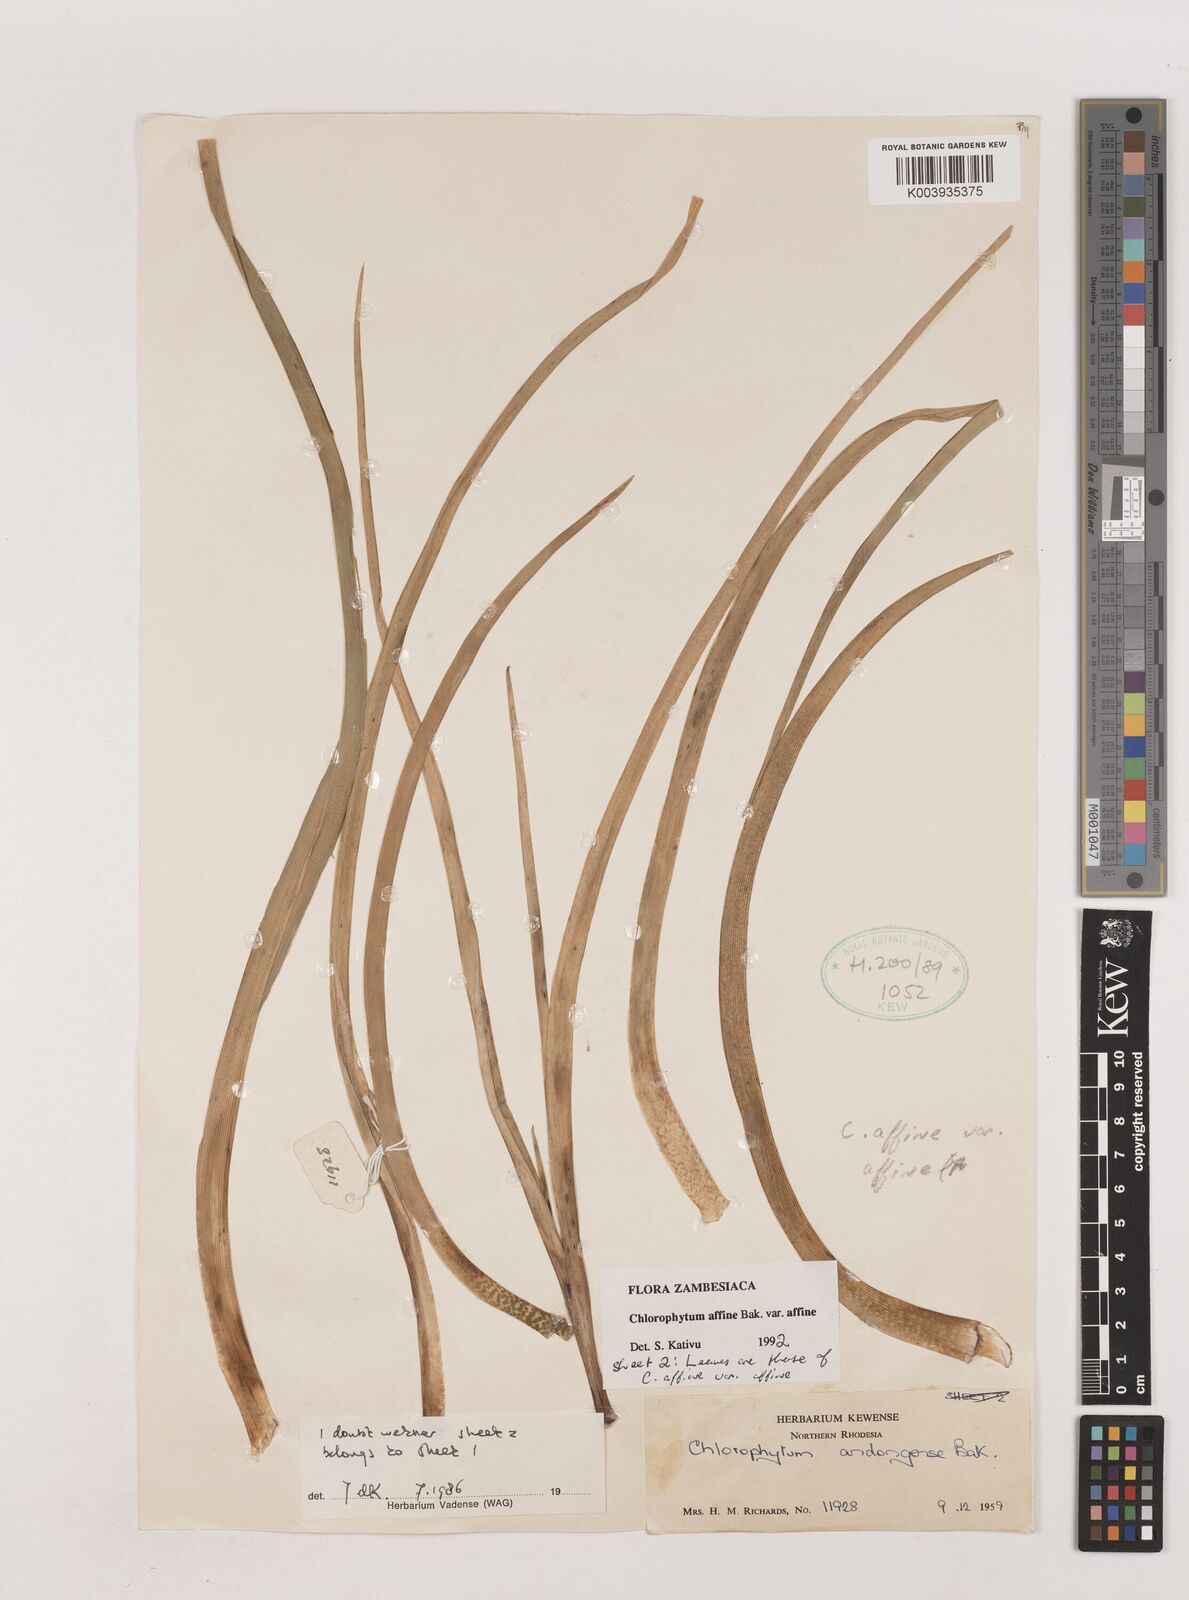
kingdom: Plantae
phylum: Tracheophyta
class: Liliopsida
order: Asparagales
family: Asparagaceae
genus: Chlorophytum
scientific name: Chlorophytum affine
